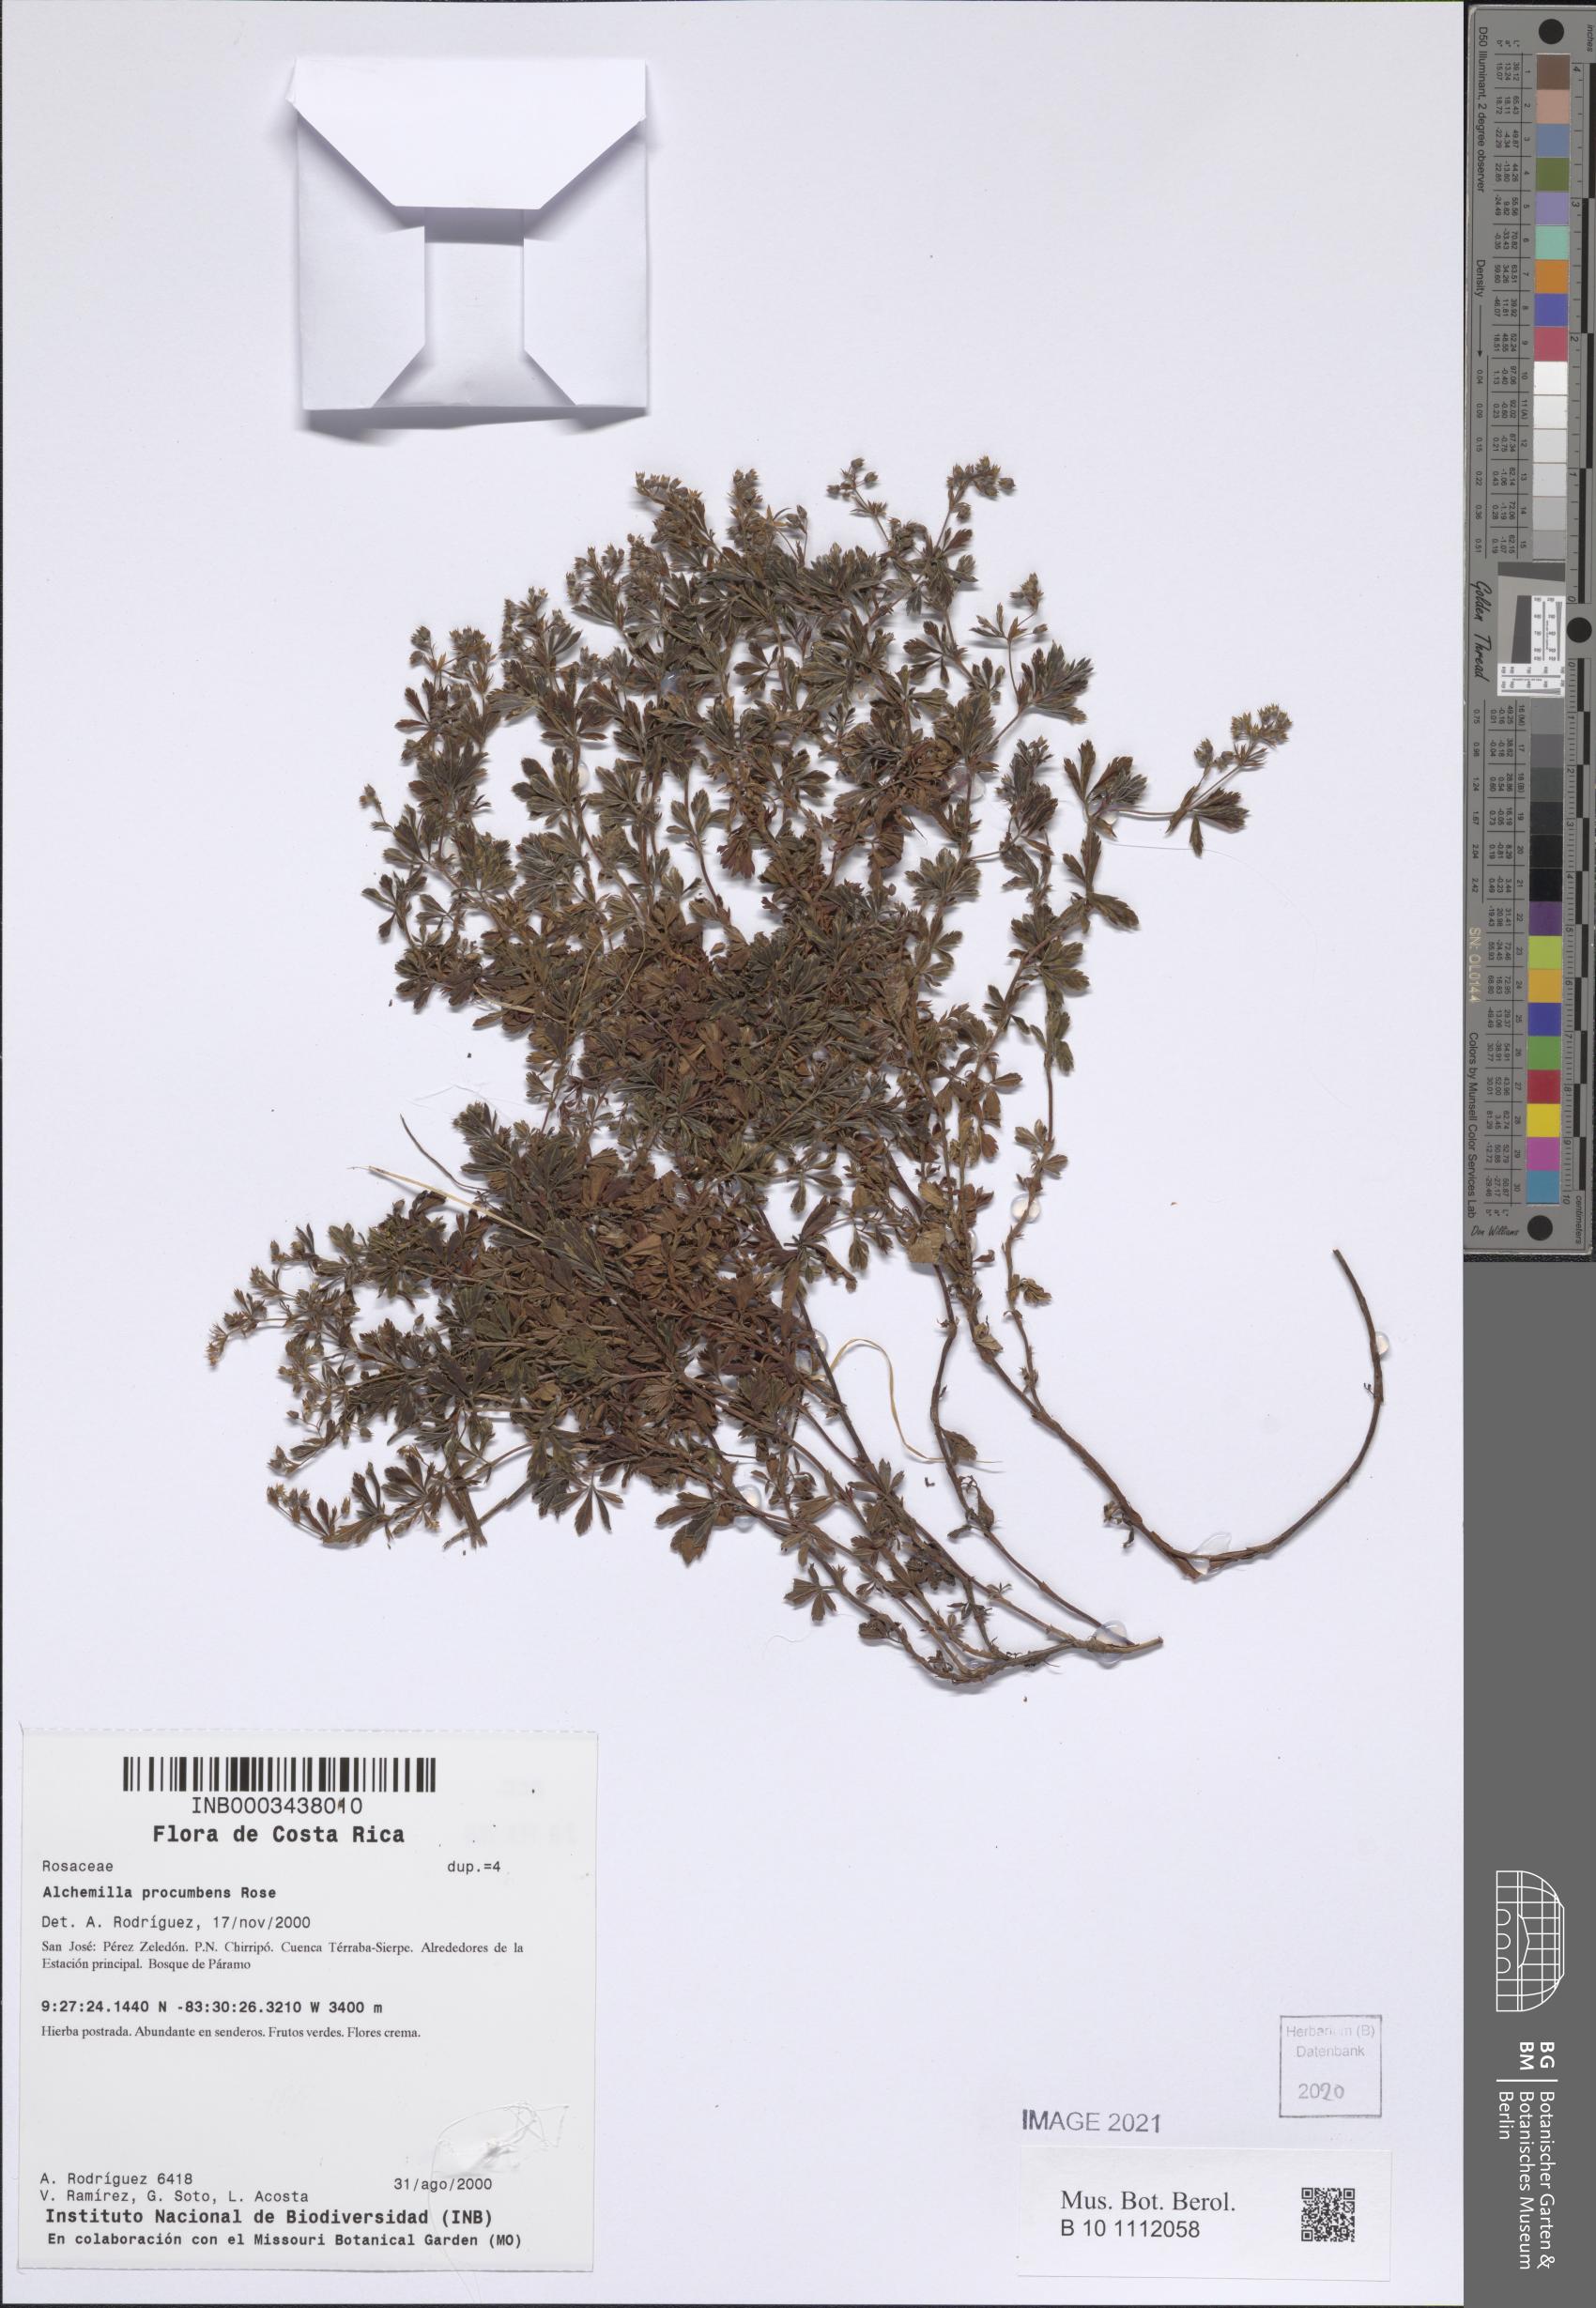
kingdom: Plantae
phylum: Tracheophyta
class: Magnoliopsida
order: Rosales
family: Rosaceae
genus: Lachemilla
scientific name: Lachemilla procumbens
